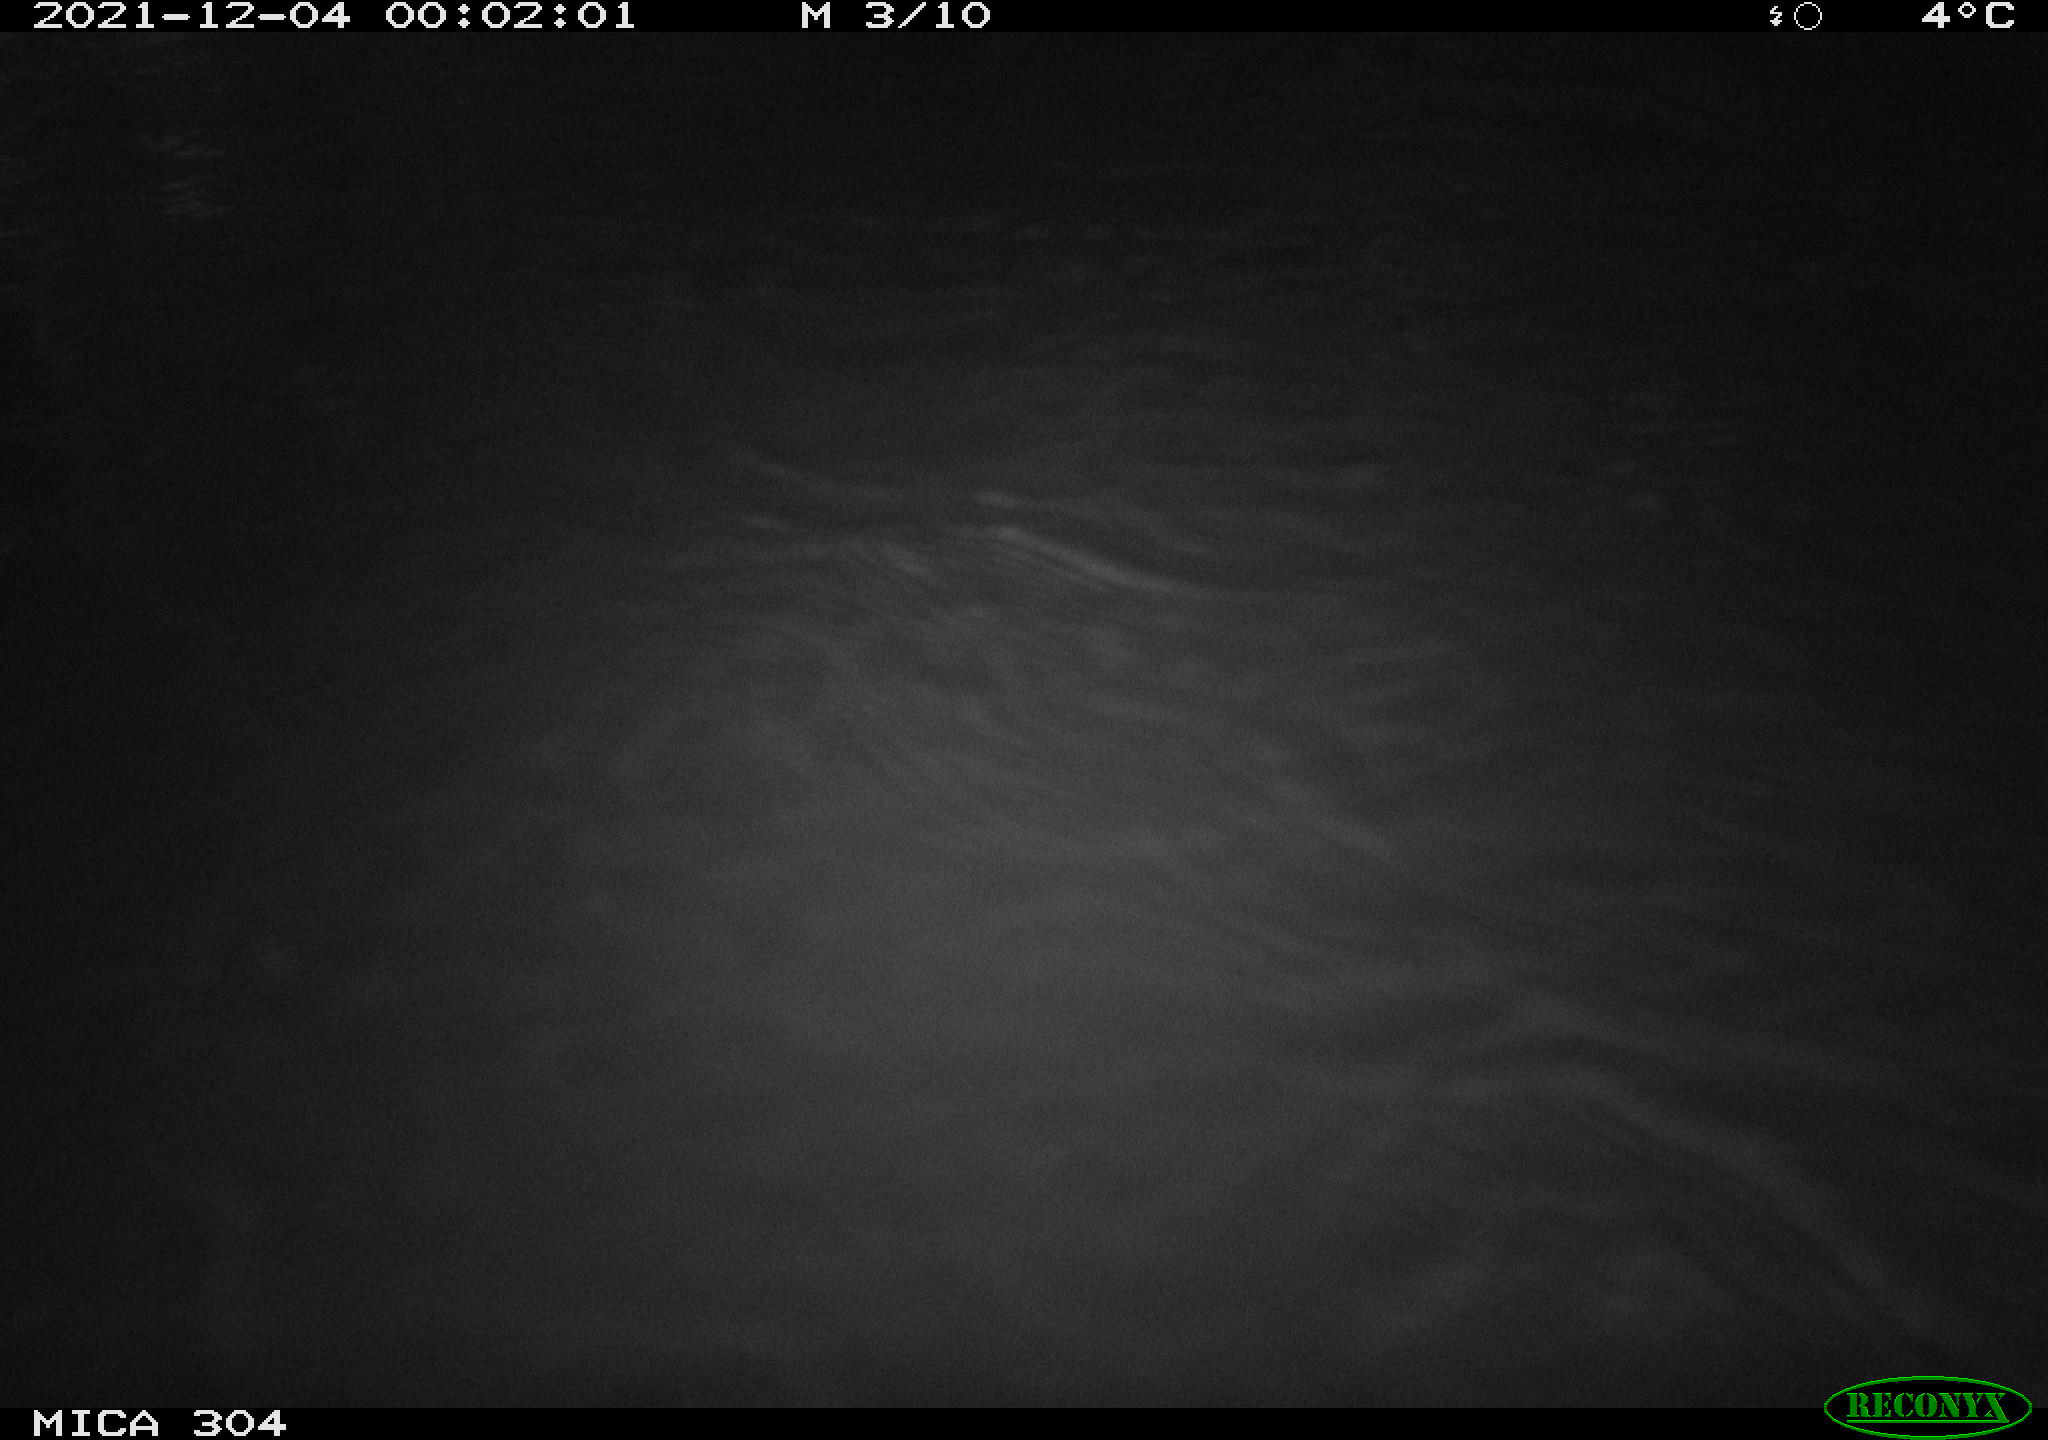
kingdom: Animalia
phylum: Chordata
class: Mammalia
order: Rodentia
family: Cricetidae
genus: Ondatra
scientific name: Ondatra zibethicus
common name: Muskrat
